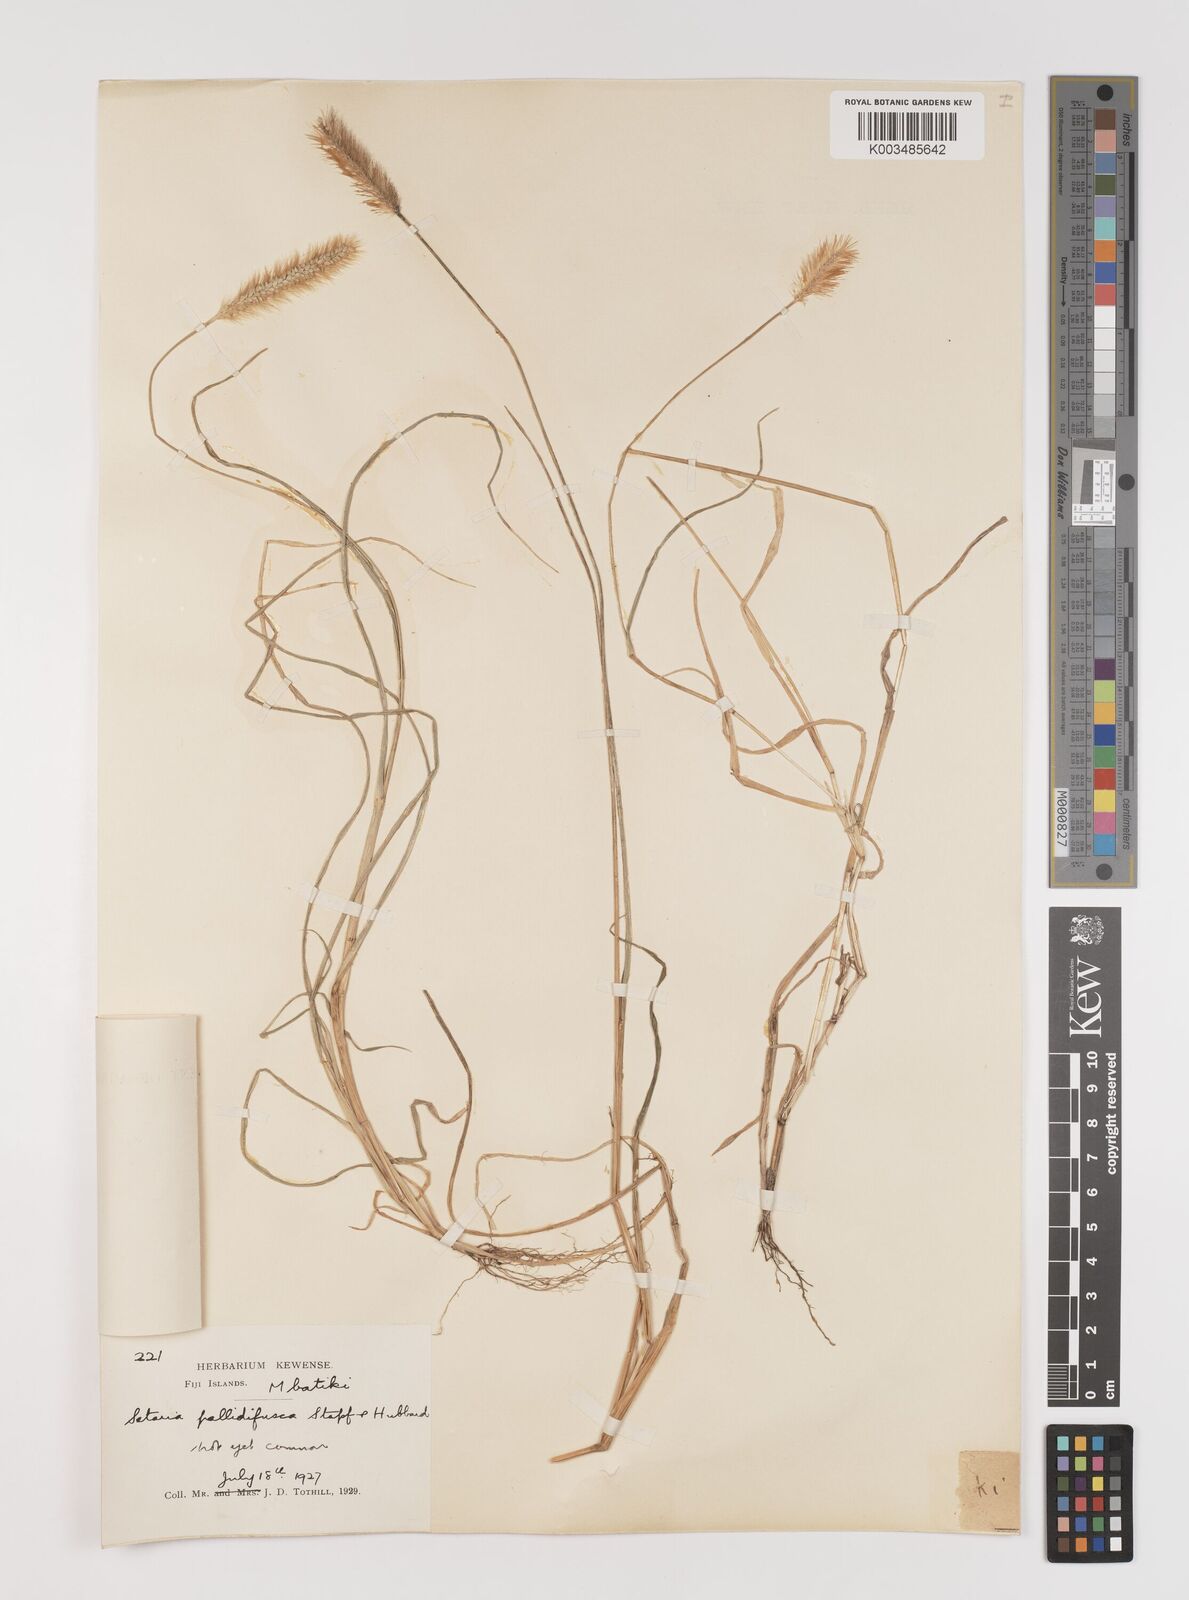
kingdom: Plantae
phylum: Tracheophyta
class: Liliopsida
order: Poales
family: Poaceae
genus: Setaria
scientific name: Setaria pumila
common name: Yellow bristle-grass
